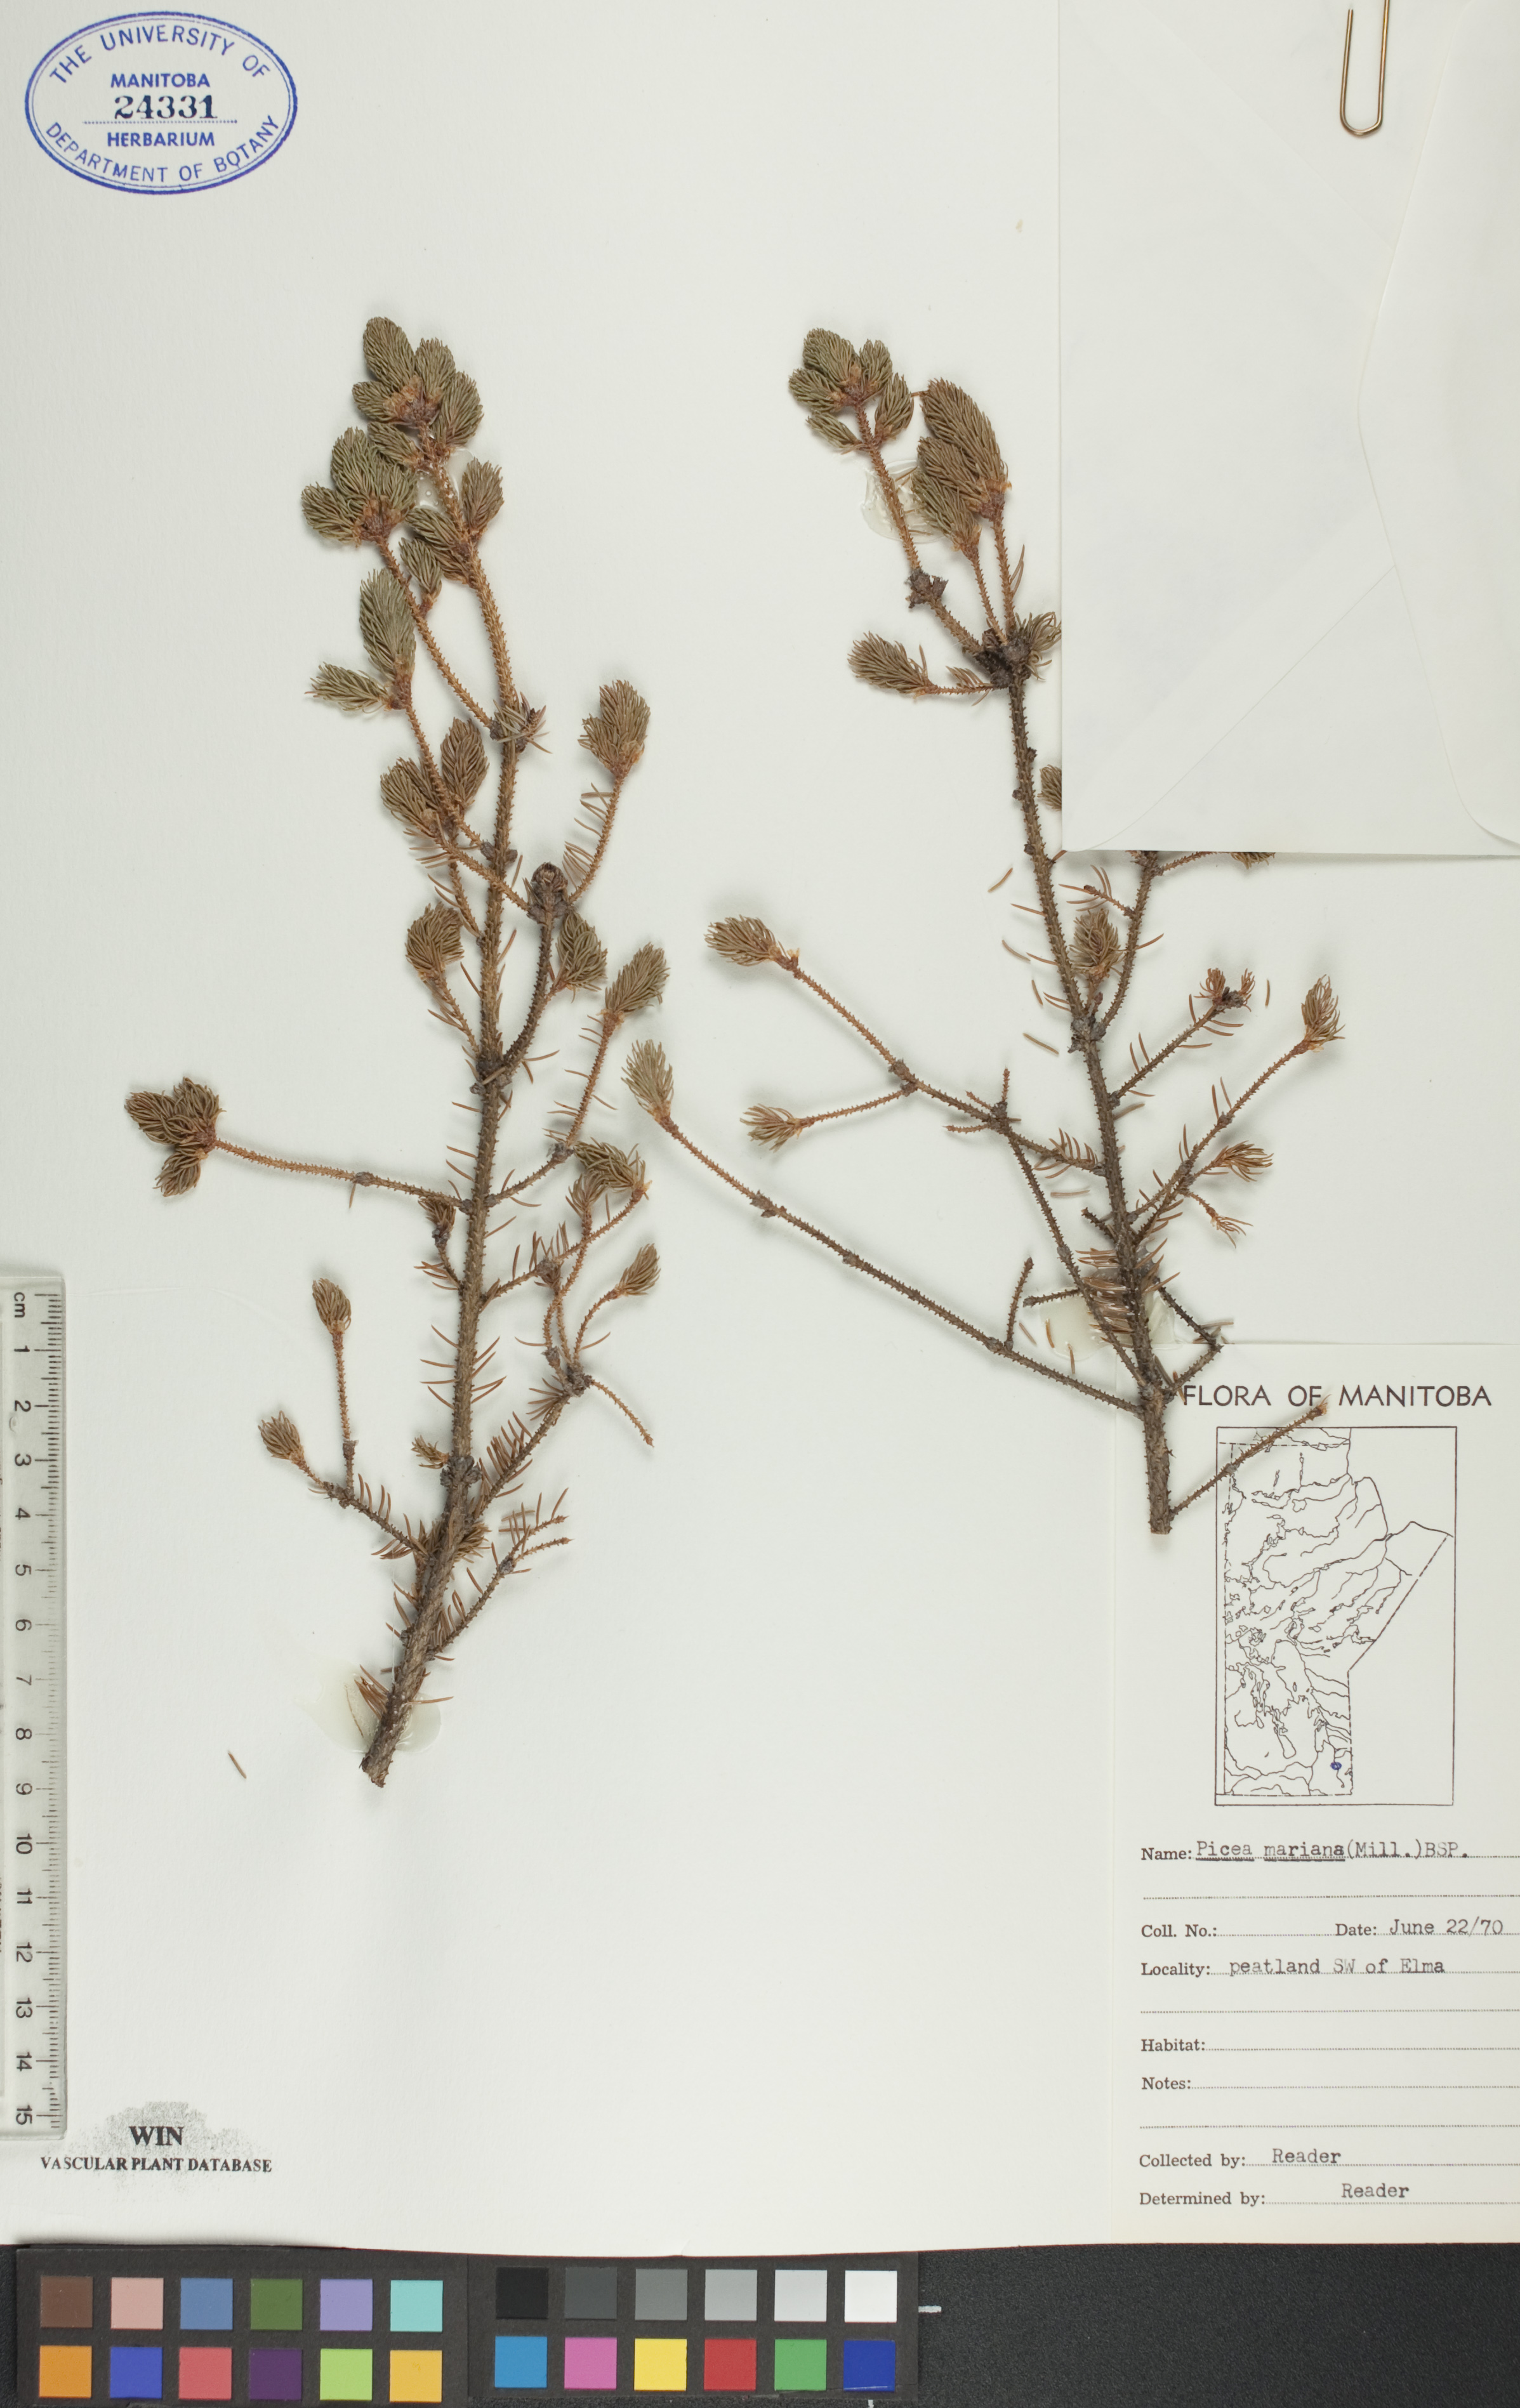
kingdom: Plantae
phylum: Tracheophyta
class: Pinopsida
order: Pinales
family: Pinaceae
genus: Picea
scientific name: Picea mariana
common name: Black spruce
